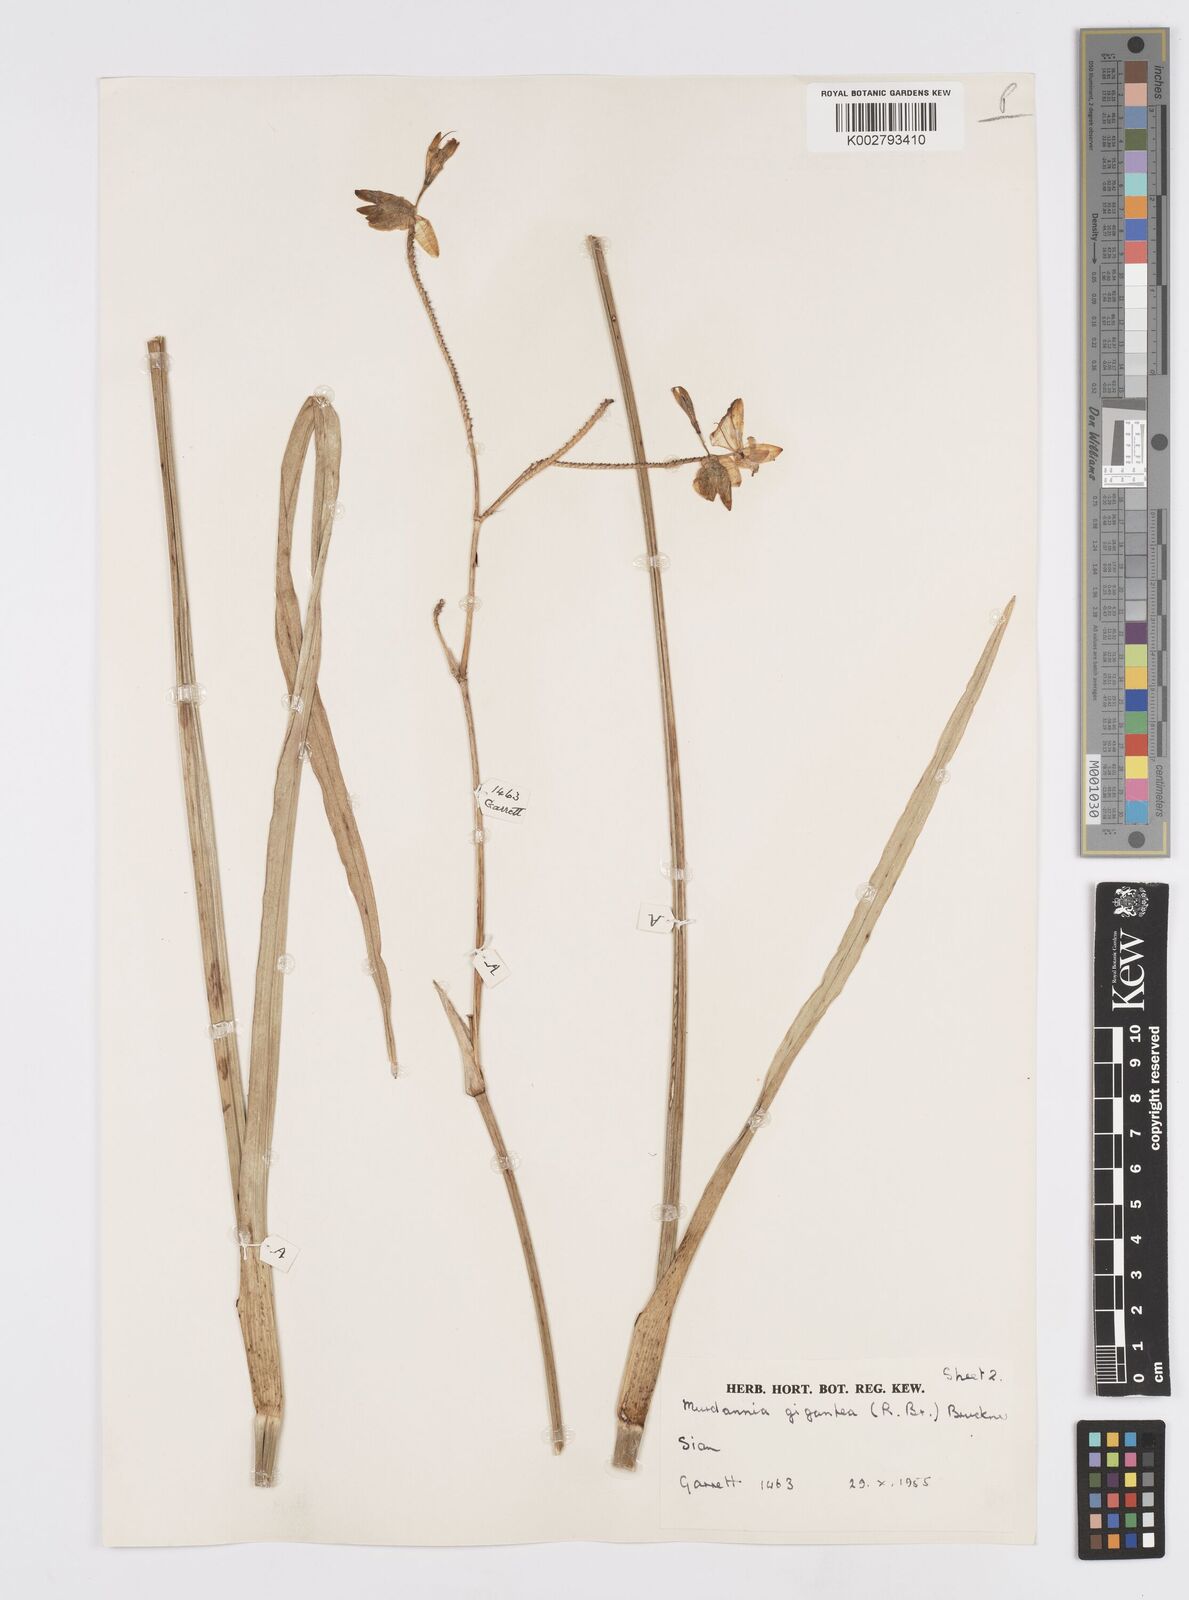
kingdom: Plantae
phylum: Tracheophyta
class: Liliopsida
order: Commelinales
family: Commelinaceae
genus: Murdannia
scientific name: Murdannia gigantea
